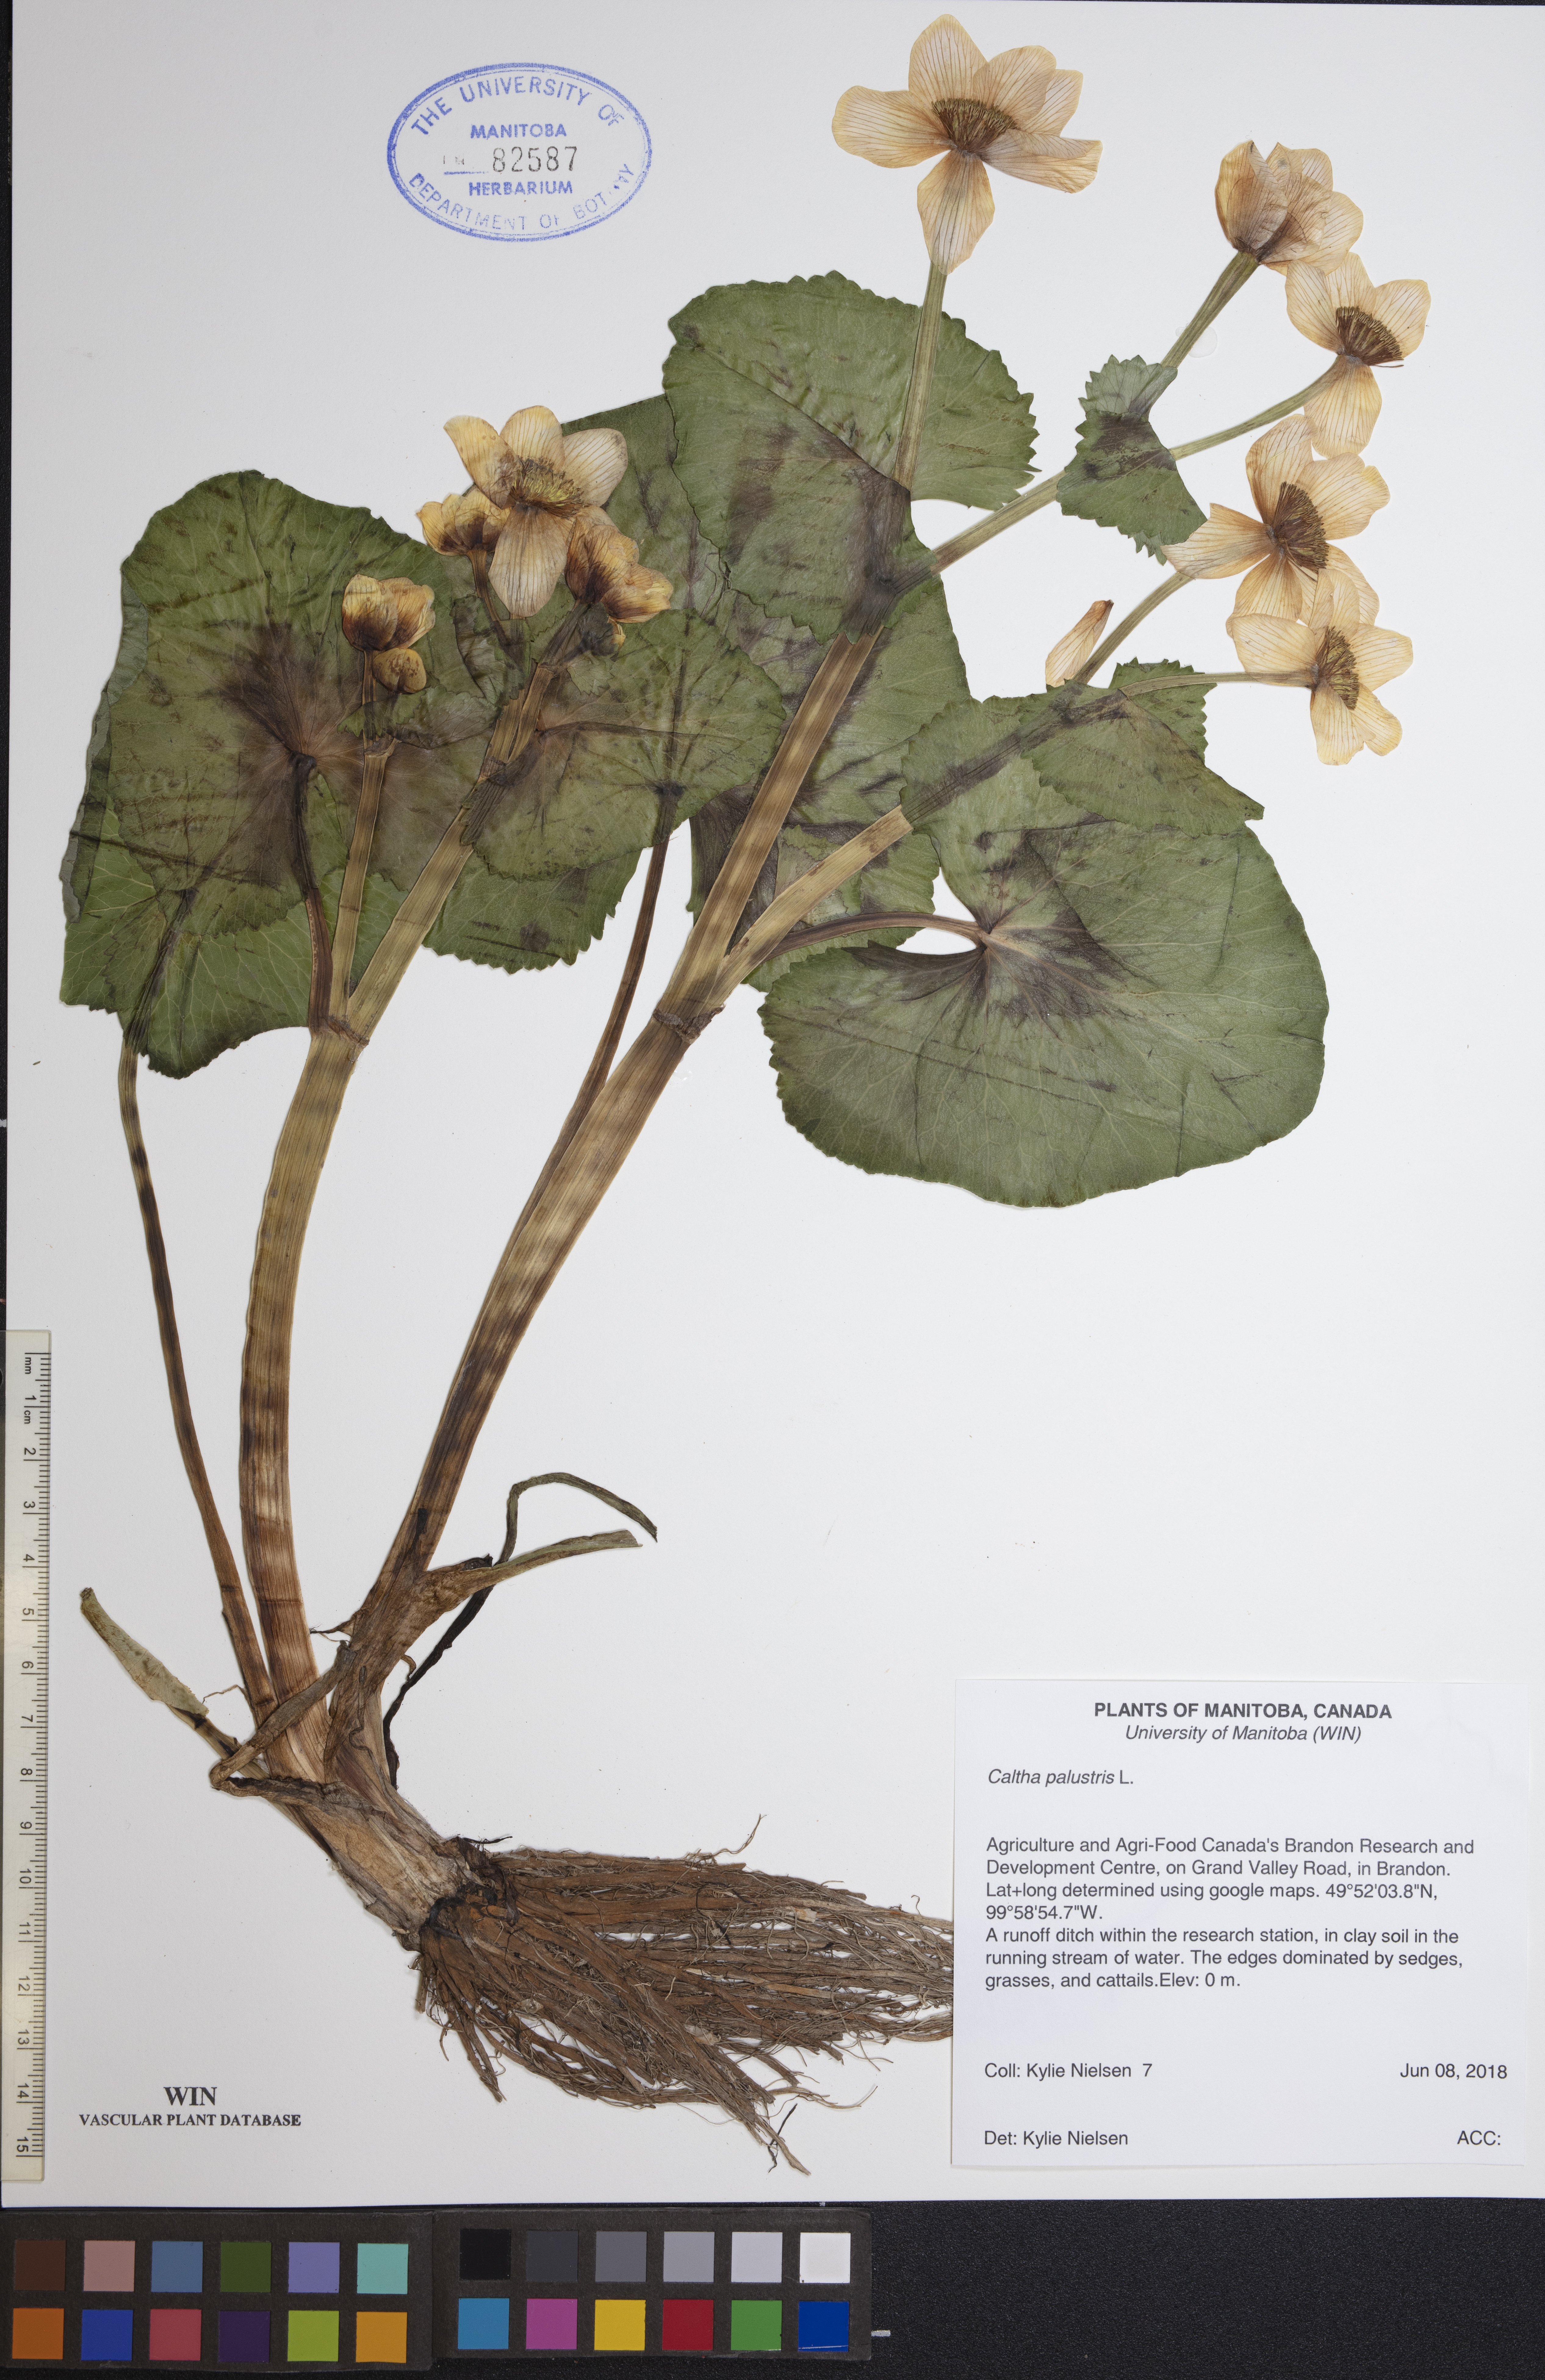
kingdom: Plantae
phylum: Tracheophyta
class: Magnoliopsida
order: Ranunculales
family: Ranunculaceae
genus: Caltha
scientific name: Caltha palustris
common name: Marsh marigold
